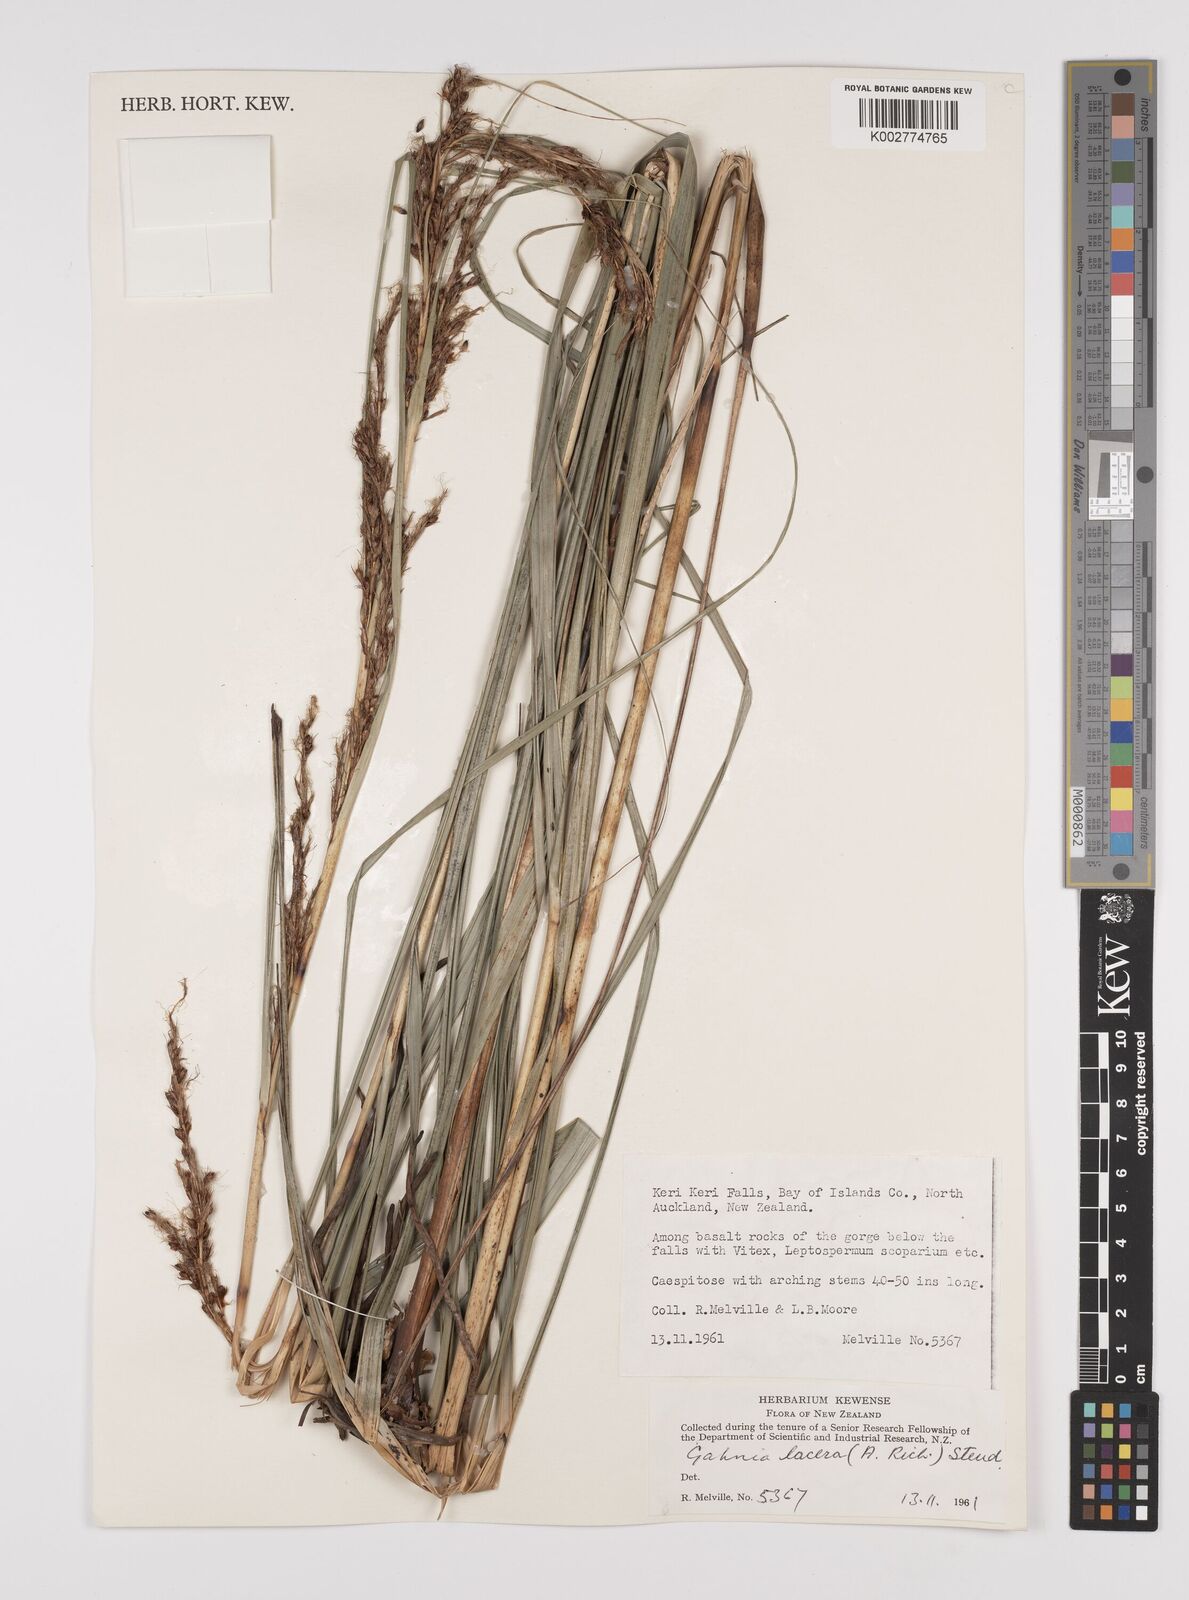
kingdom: Plantae
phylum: Tracheophyta
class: Liliopsida
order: Poales
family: Cyperaceae
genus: Gahnia
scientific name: Gahnia lacera
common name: Sawsedge
